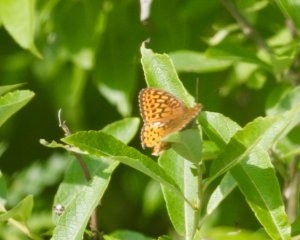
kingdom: Animalia
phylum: Arthropoda
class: Insecta
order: Lepidoptera
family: Nymphalidae
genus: Speyeria
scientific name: Speyeria atlantis
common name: Atlantis Fritillary
